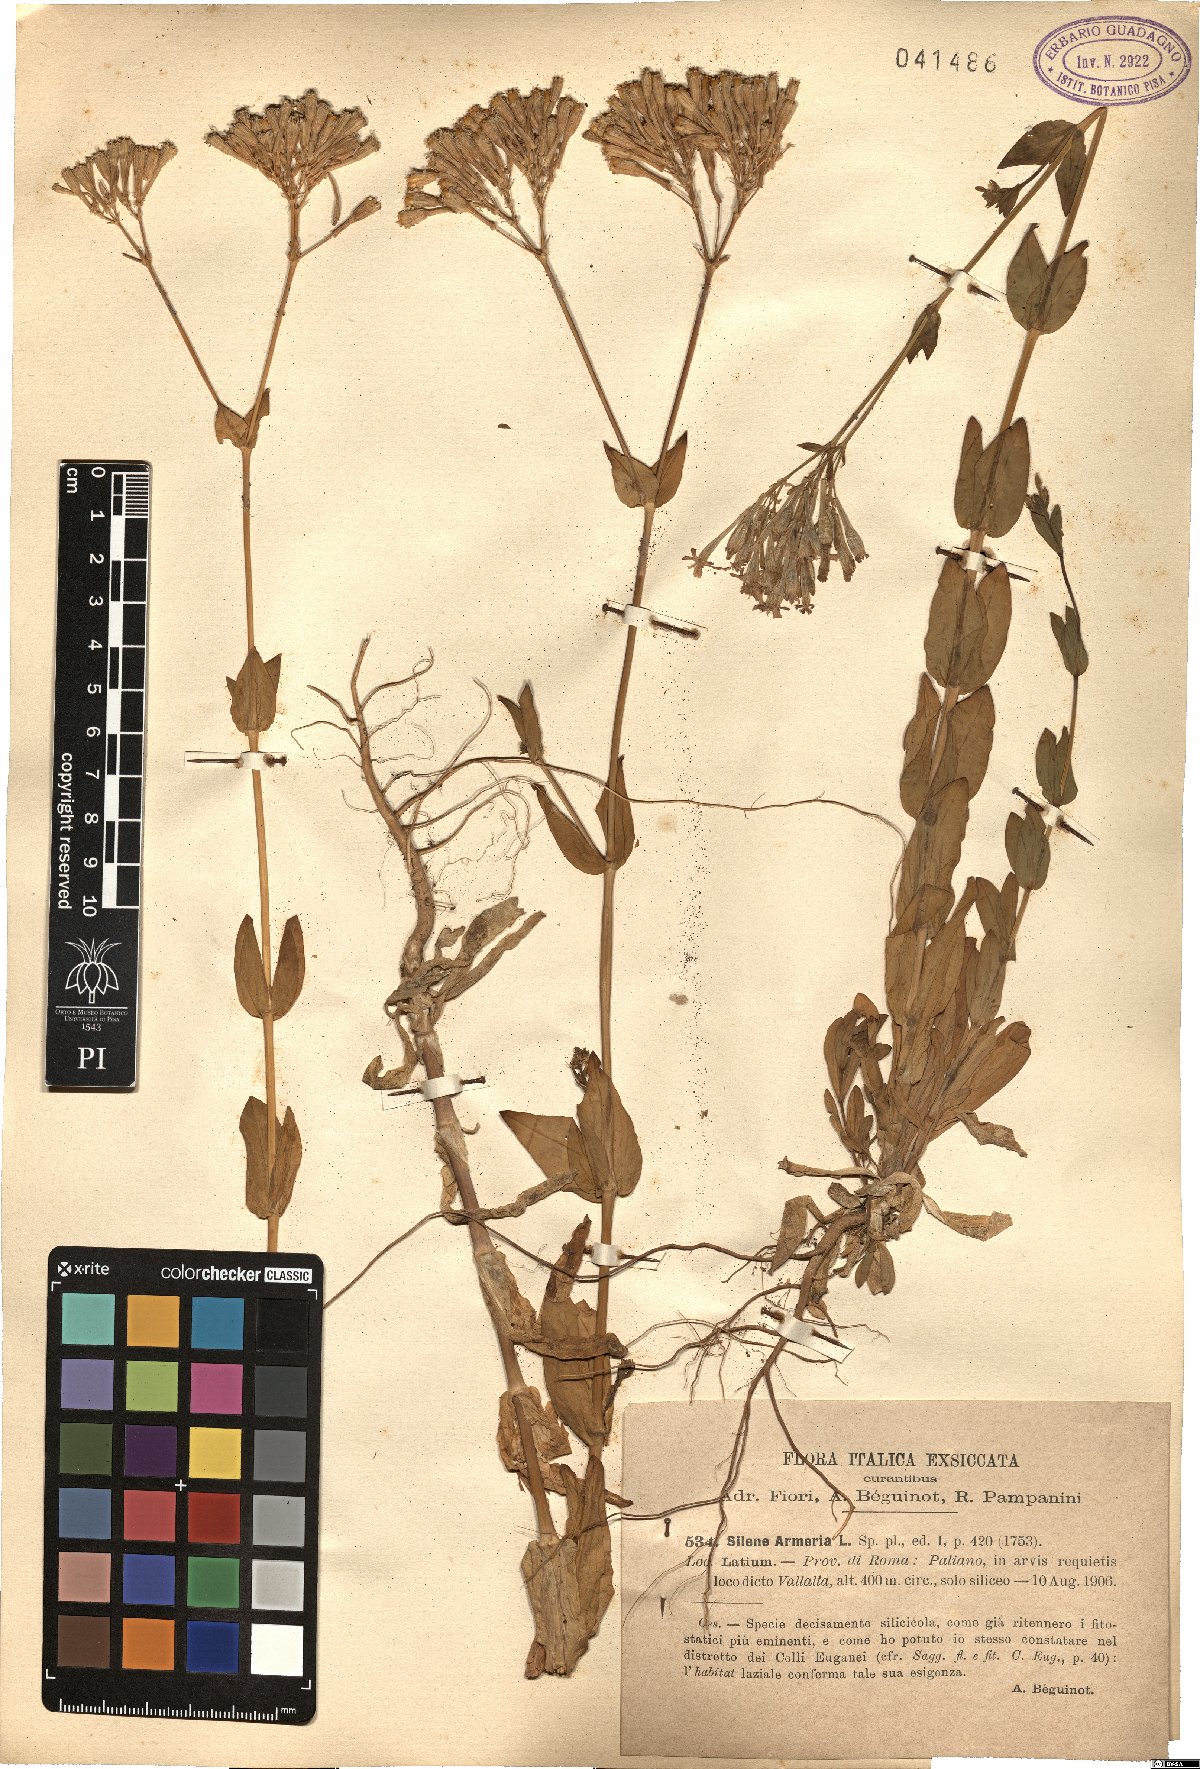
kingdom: Plantae
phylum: Tracheophyta
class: Magnoliopsida
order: Caryophyllales
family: Caryophyllaceae
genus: Atocion
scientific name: Atocion armeria
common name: Sweet william catchfly
